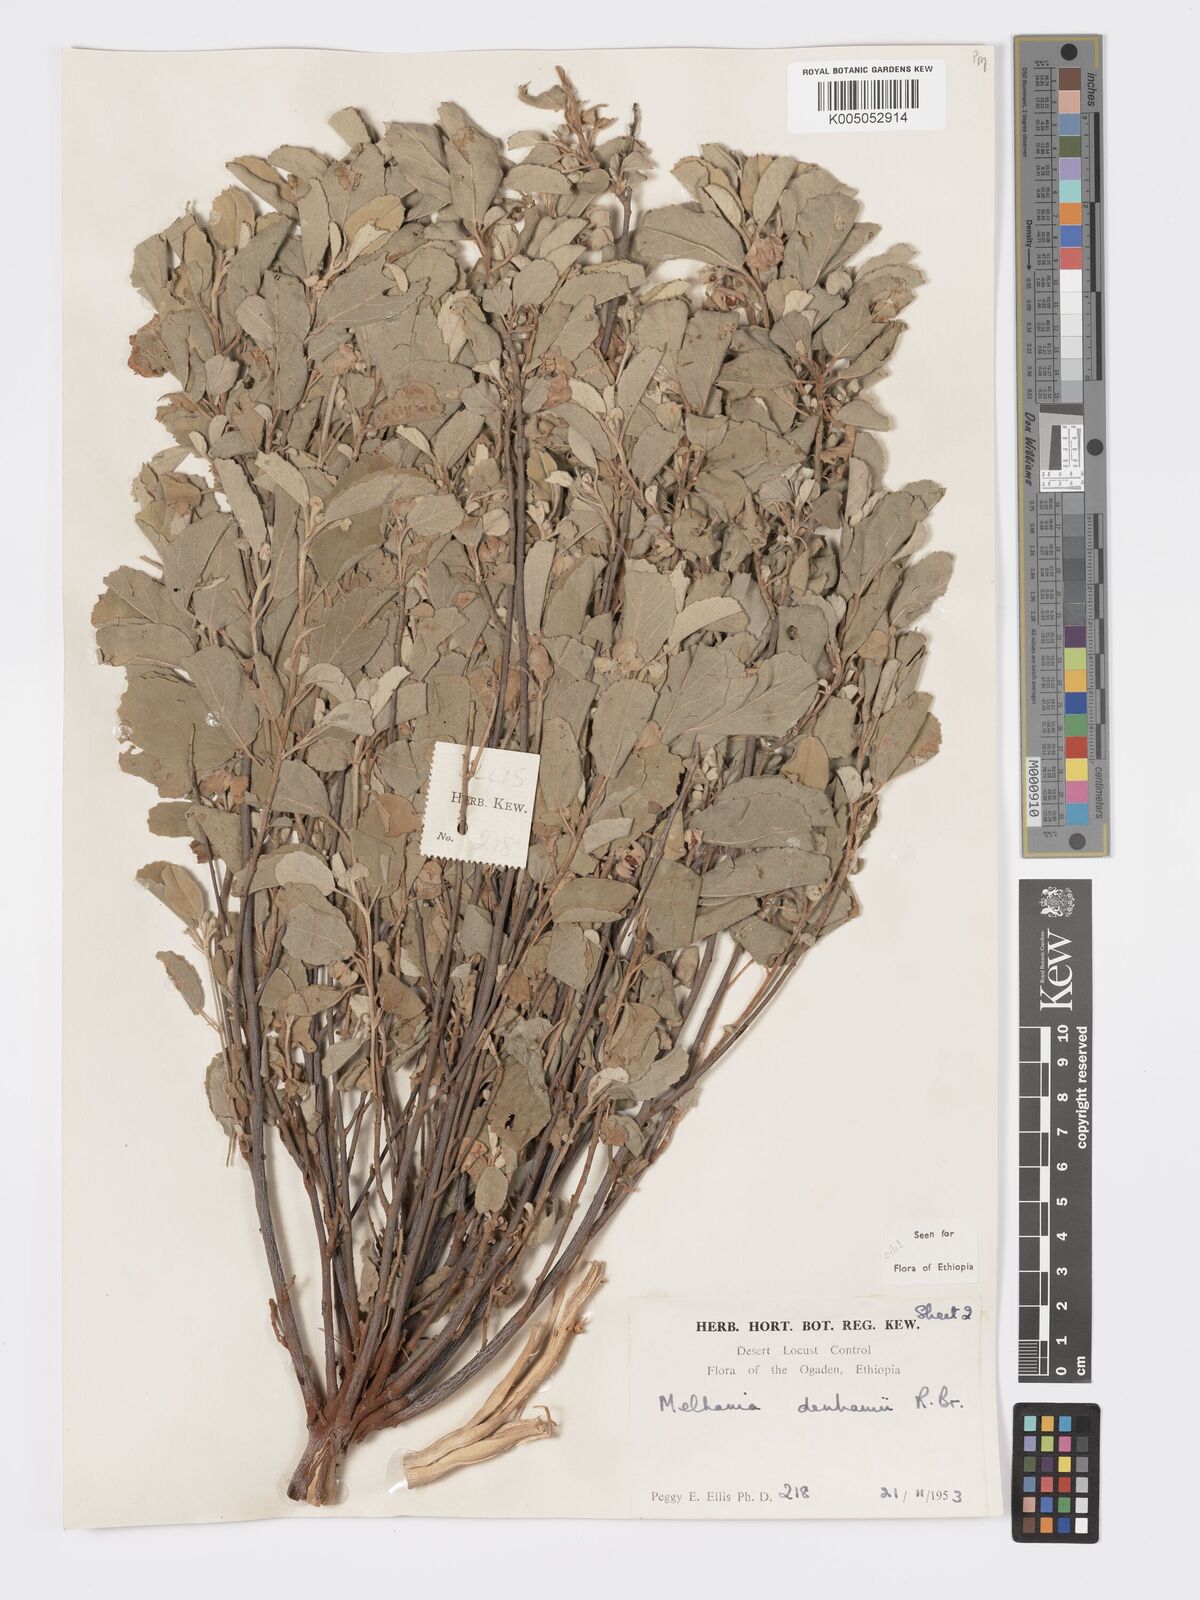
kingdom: Plantae
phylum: Tracheophyta
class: Magnoliopsida
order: Malvales
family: Malvaceae
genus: Melhania
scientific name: Melhania denhamii
